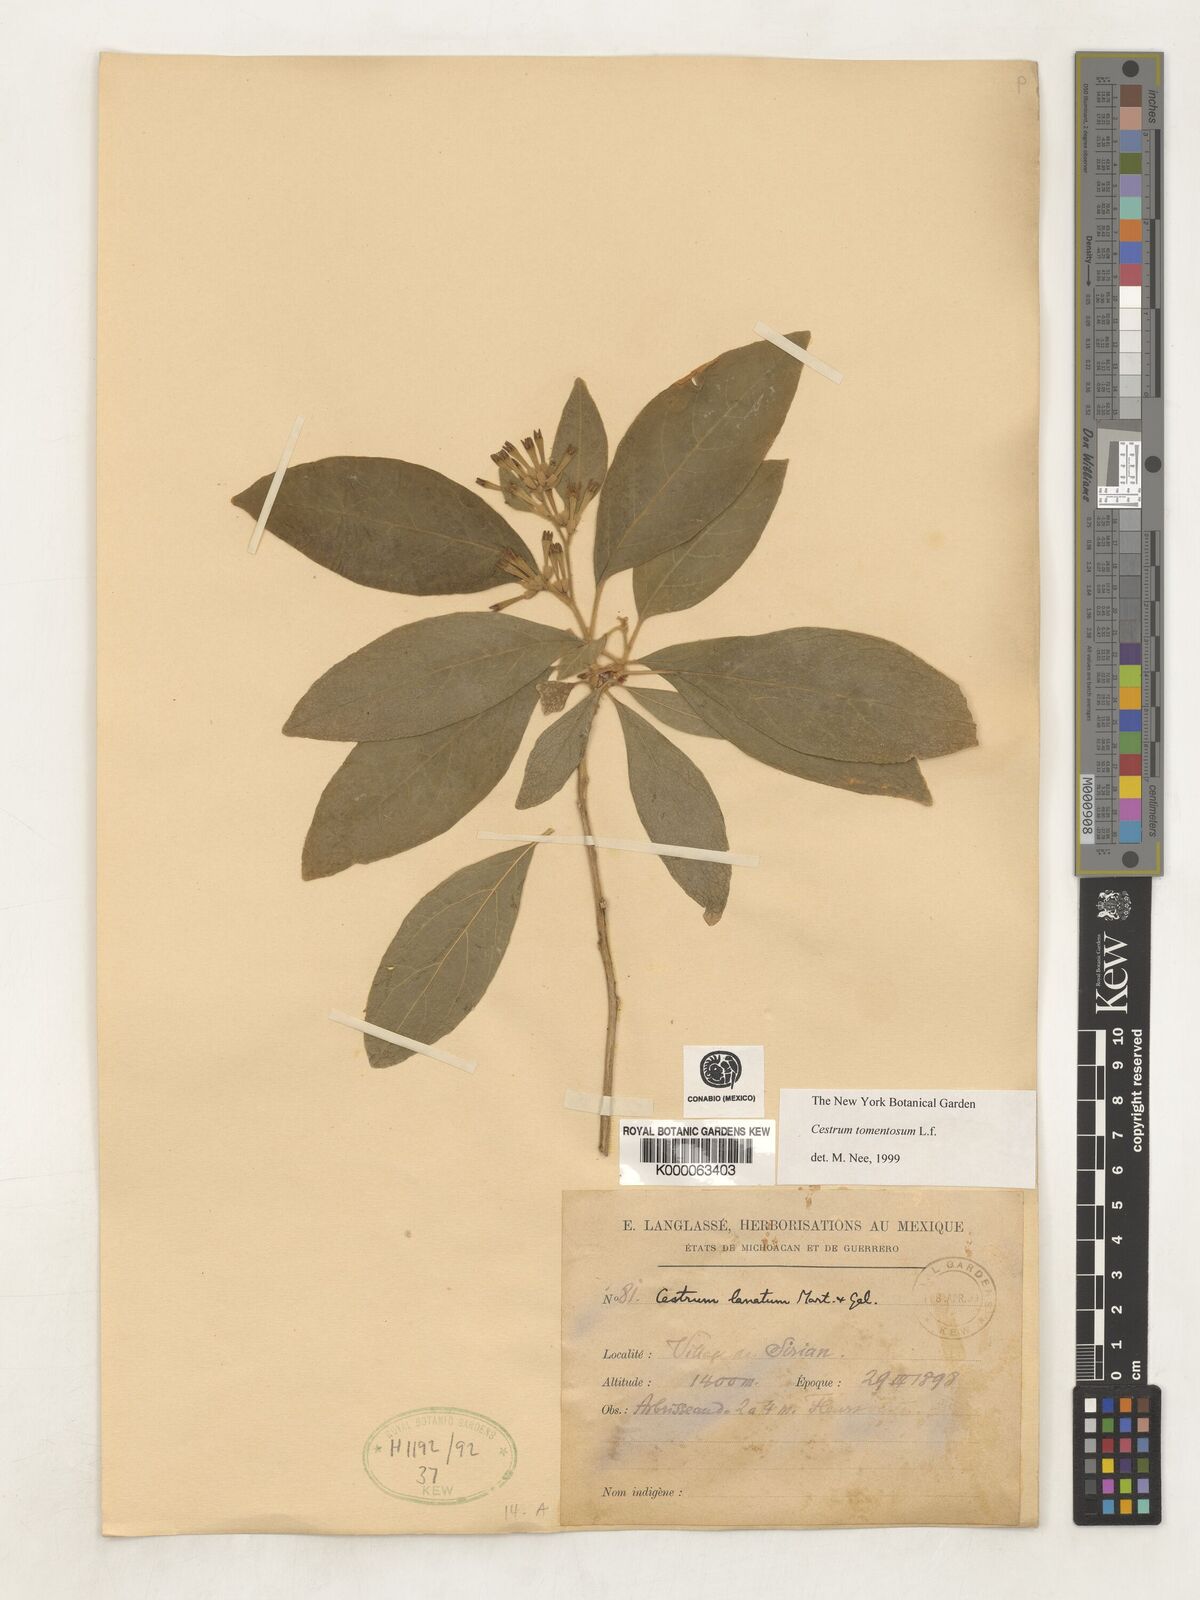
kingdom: Plantae
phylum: Tracheophyta
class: Magnoliopsida
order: Solanales
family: Solanaceae
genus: Cestrum
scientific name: Cestrum tomentosum
